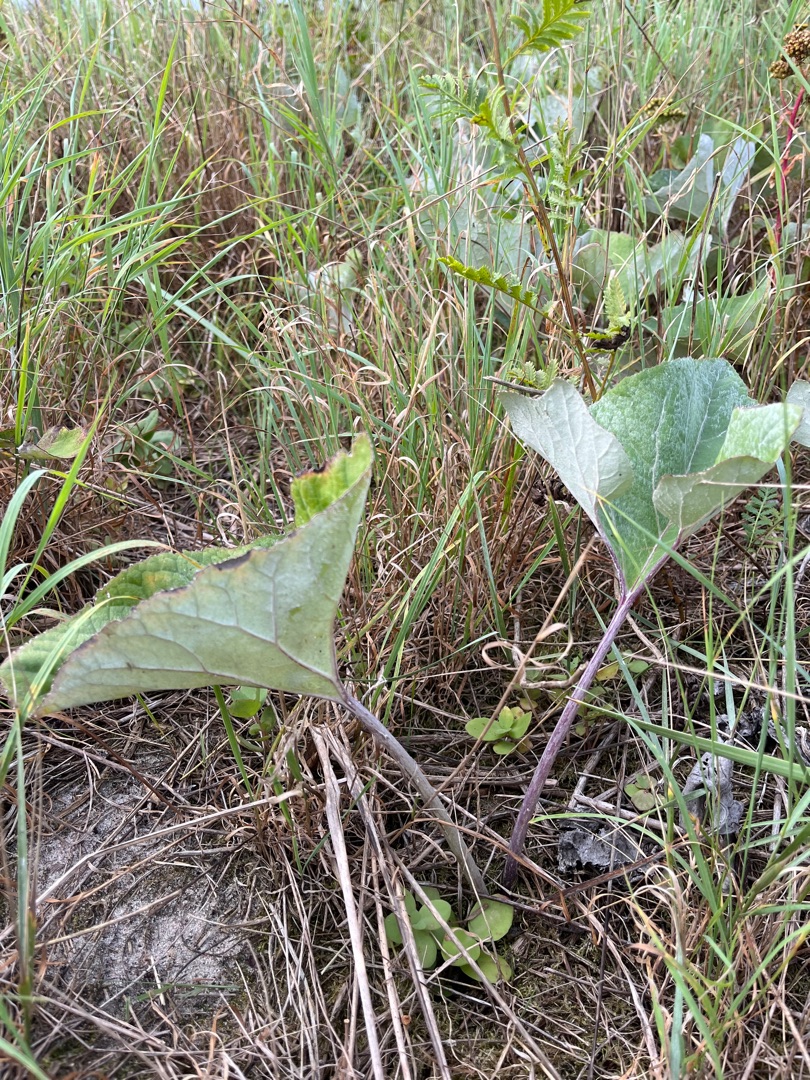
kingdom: Plantae
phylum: Tracheophyta
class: Magnoliopsida
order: Asterales
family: Asteraceae
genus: Petasites
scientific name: Petasites spurius
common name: Filtet hestehov
